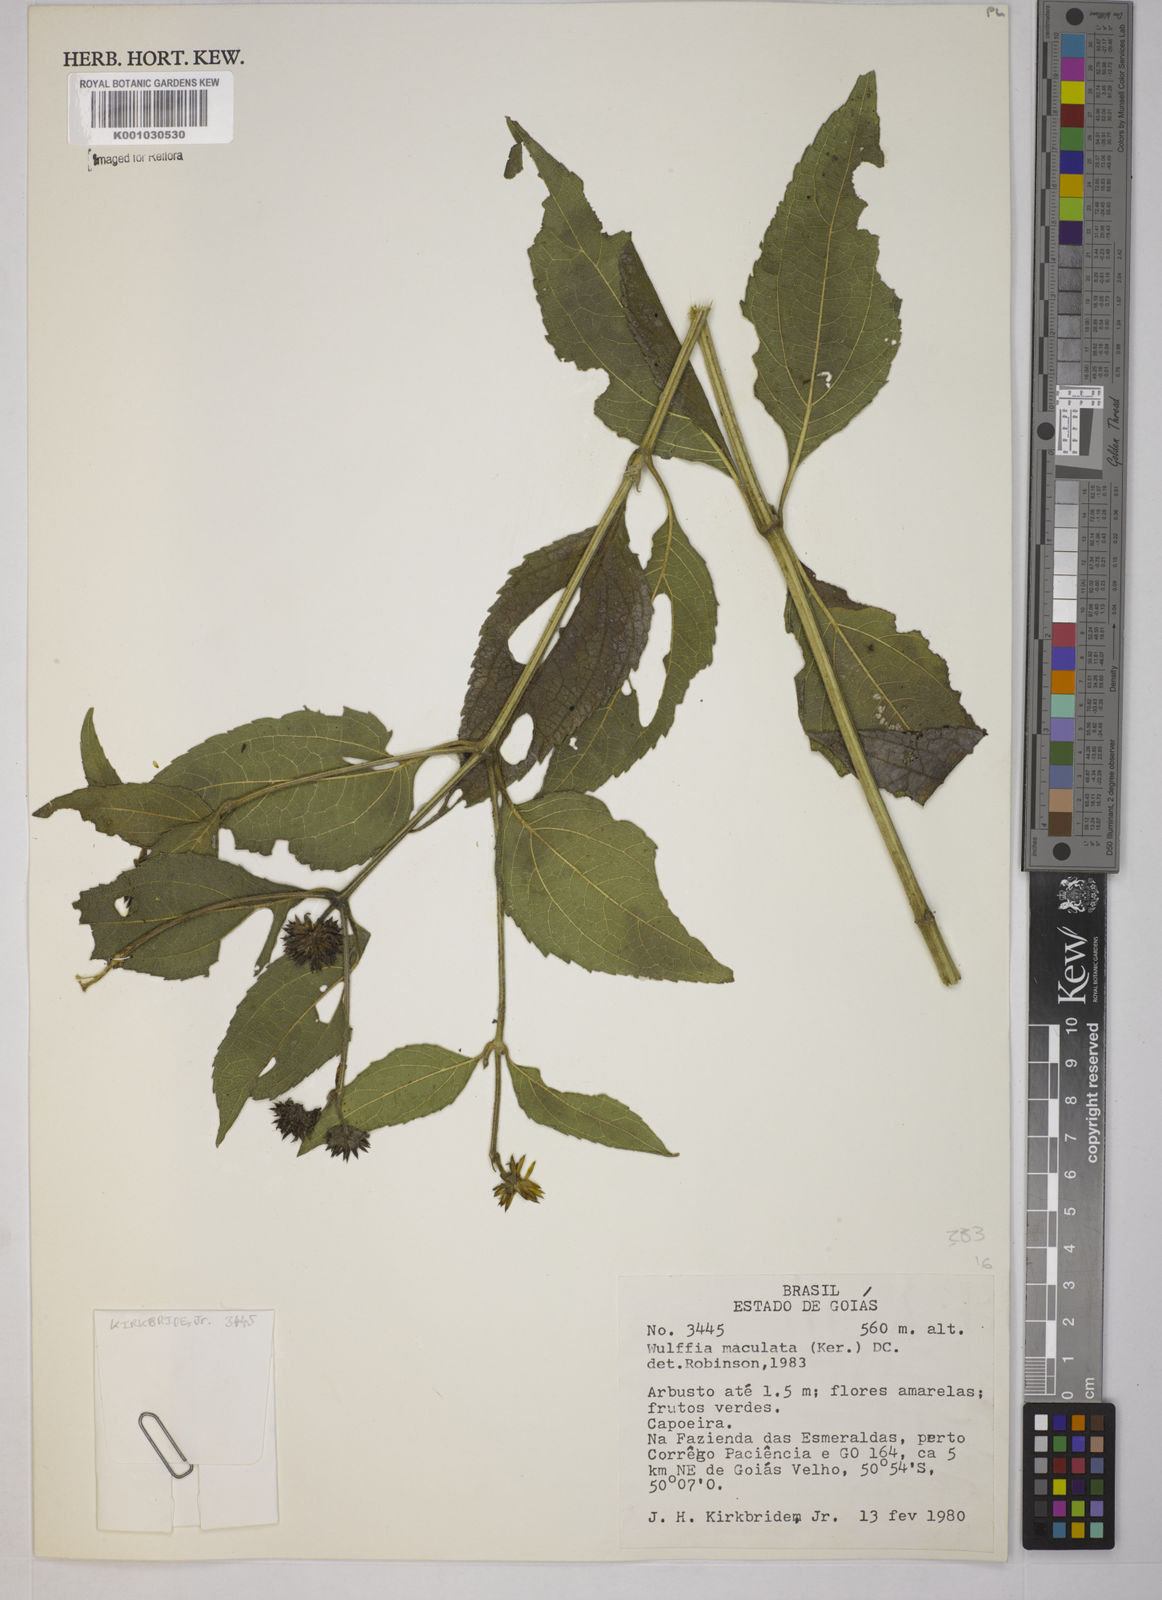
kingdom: Plantae
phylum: Tracheophyta
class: Magnoliopsida
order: Asterales
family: Asteraceae
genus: Tilesia
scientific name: Tilesia baccata
